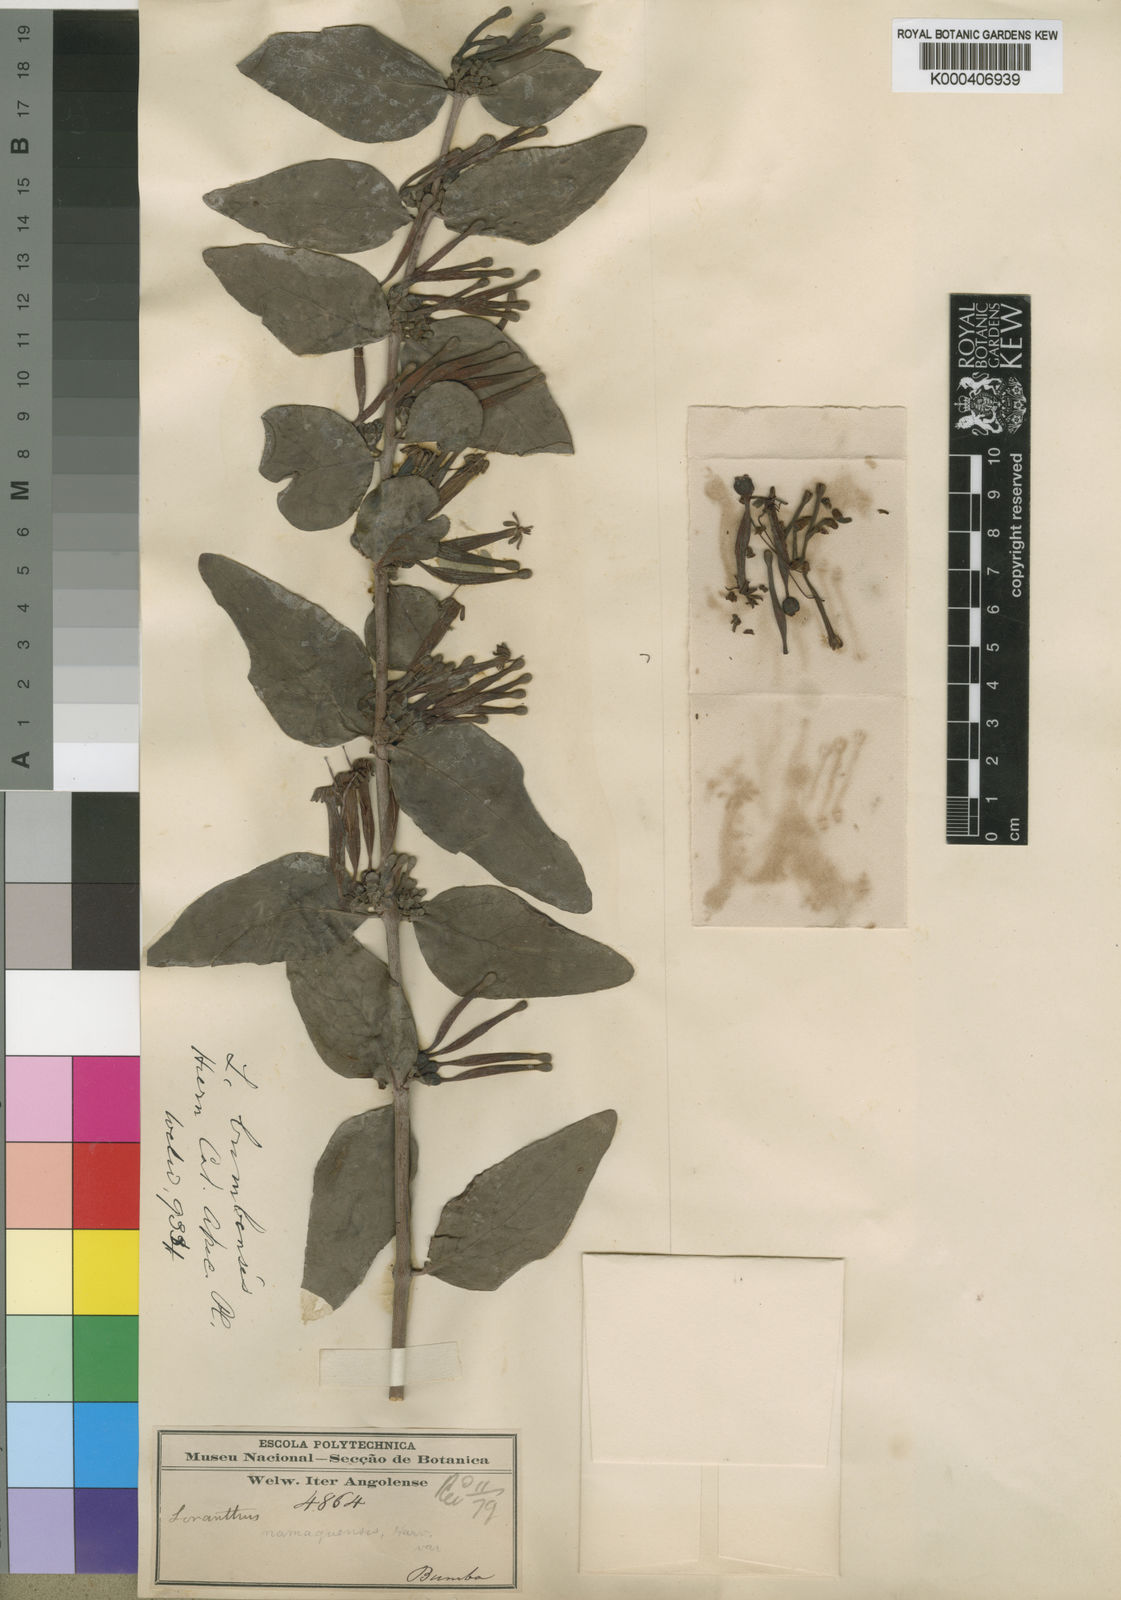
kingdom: Plantae
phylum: Tracheophyta
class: Magnoliopsida
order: Santalales
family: Loranthaceae
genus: Tapinanthus
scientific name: Tapinanthus oleifolius
